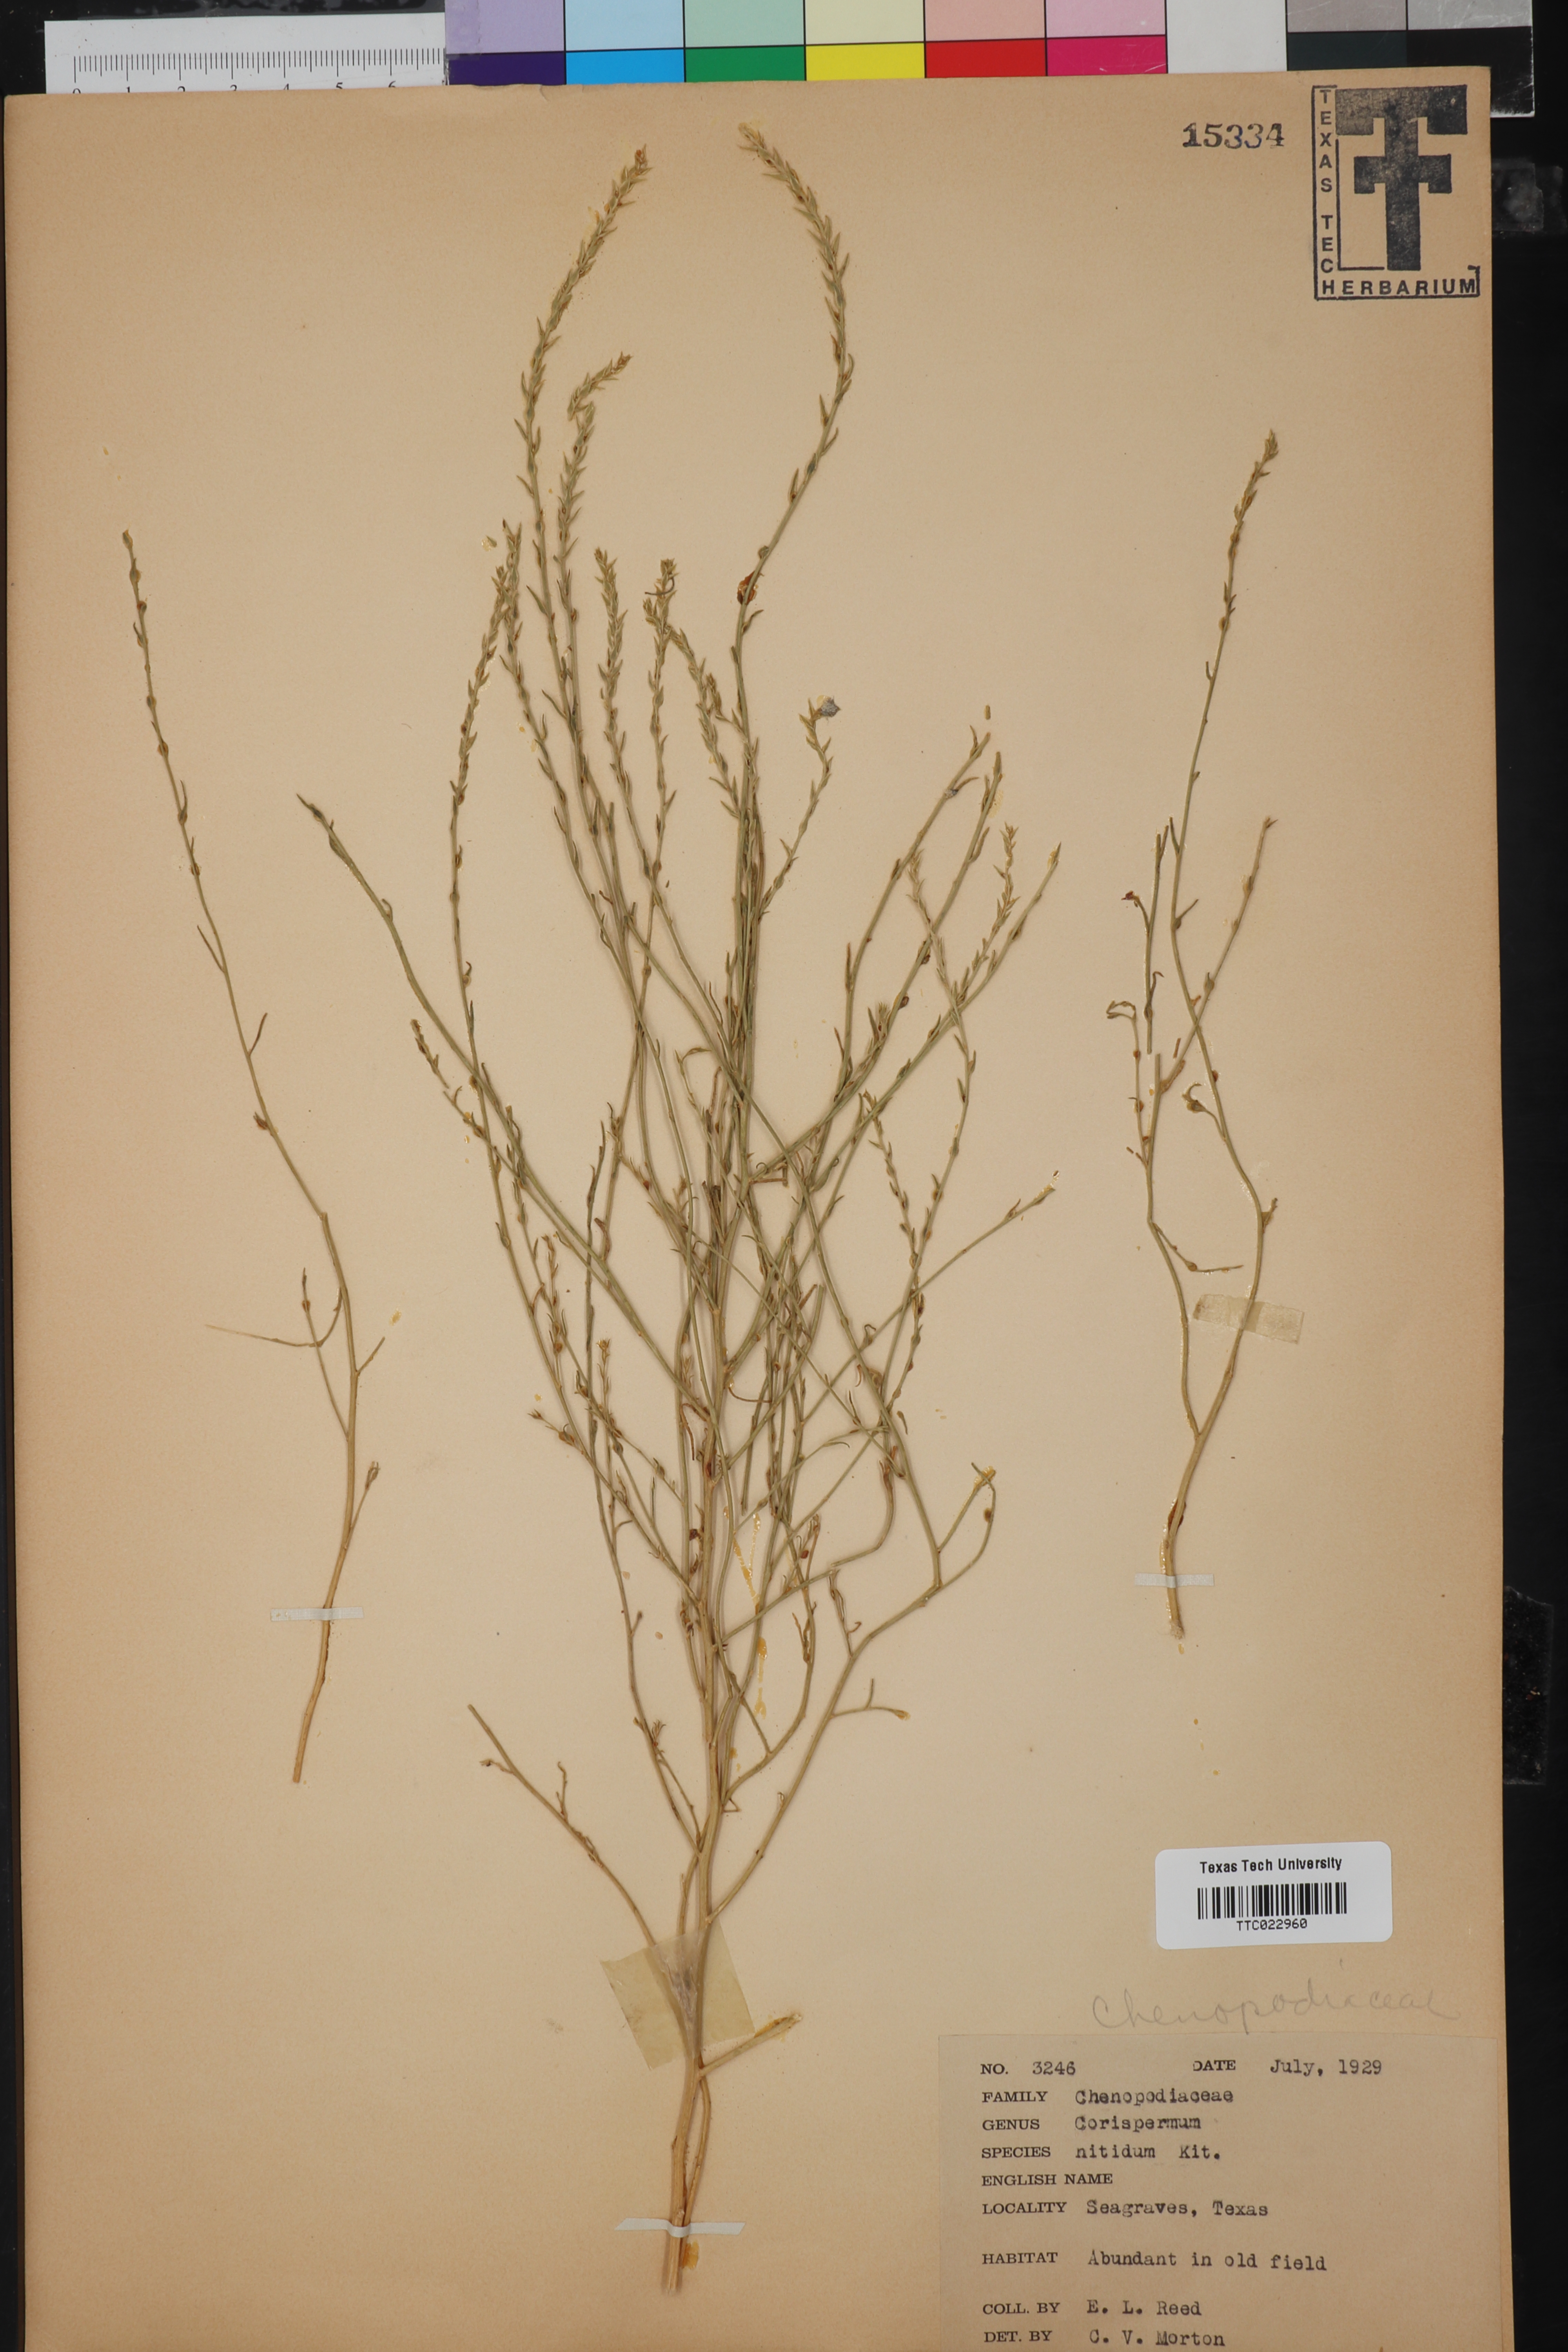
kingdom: Plantae
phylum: Tracheophyta
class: Magnoliopsida
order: Caryophyllales
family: Amaranthaceae
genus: Corispermum
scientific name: Corispermum nitidum
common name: Bugseed
